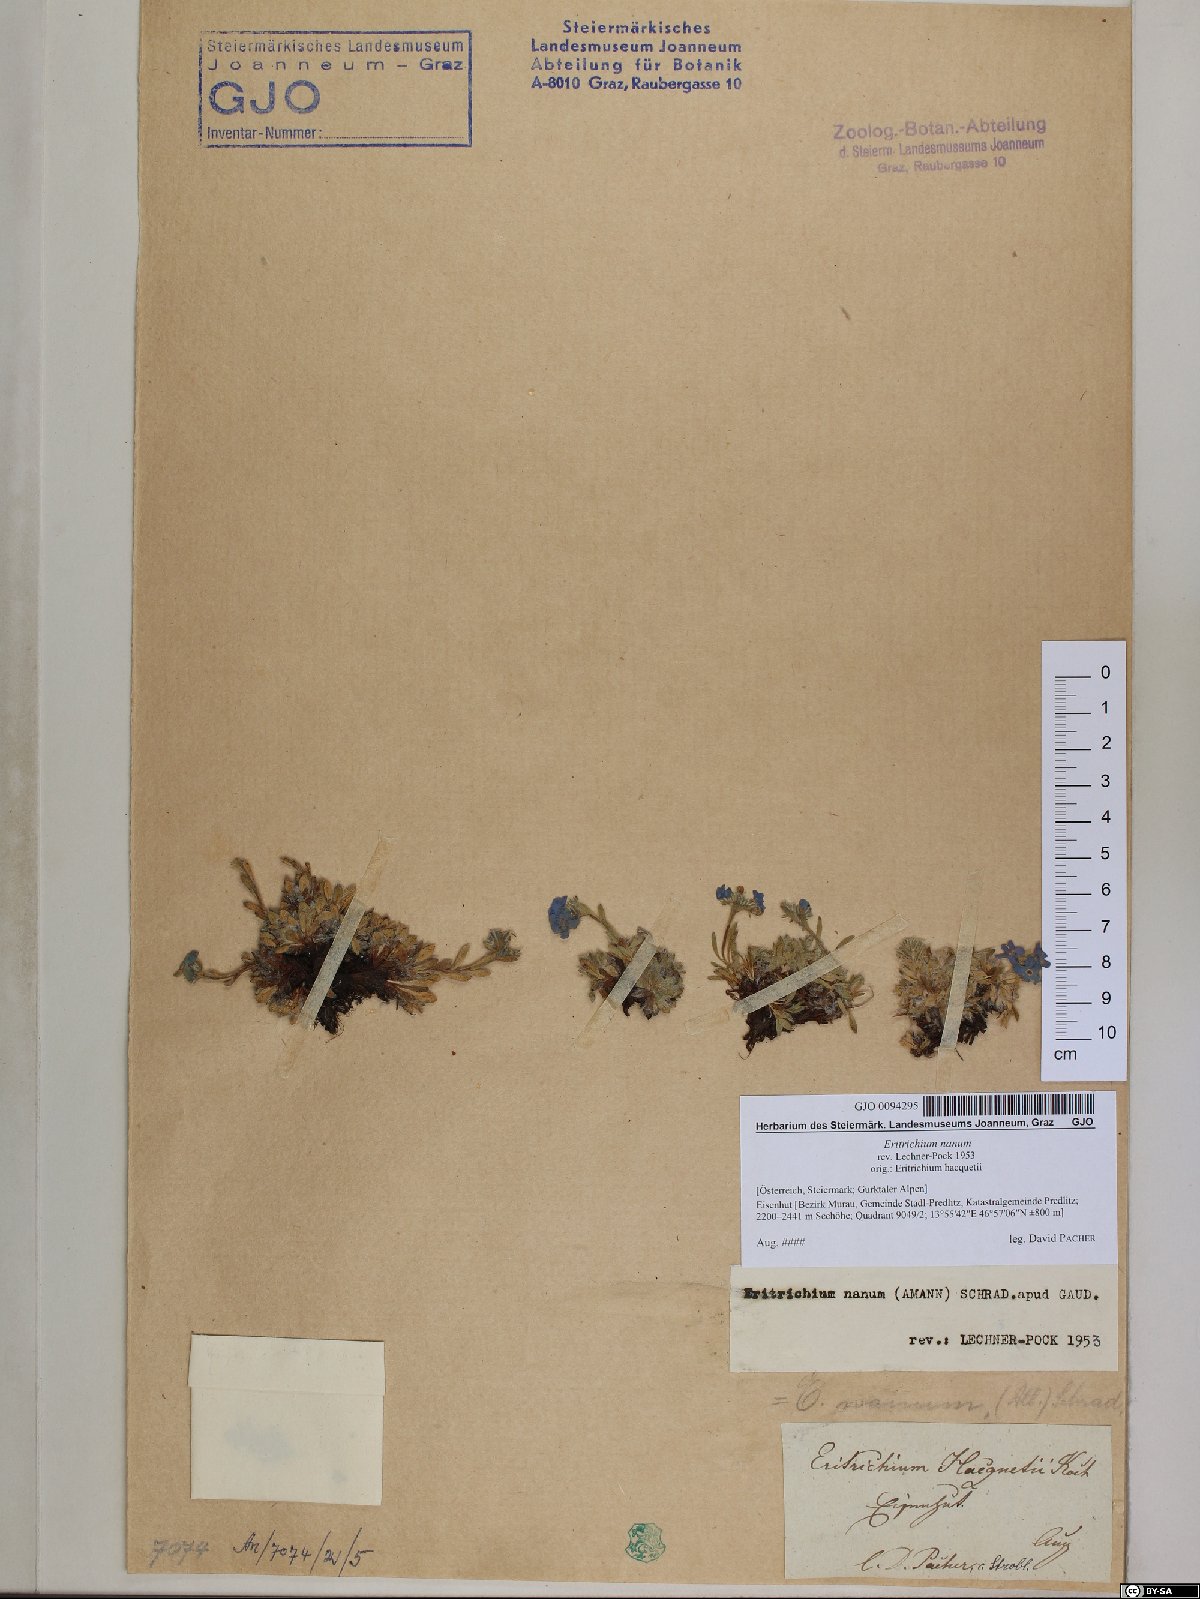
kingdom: Plantae
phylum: Tracheophyta
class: Magnoliopsida
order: Boraginales
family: Boraginaceae
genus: Eritrichium
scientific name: Eritrichium nanum
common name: King-of-the-alps
